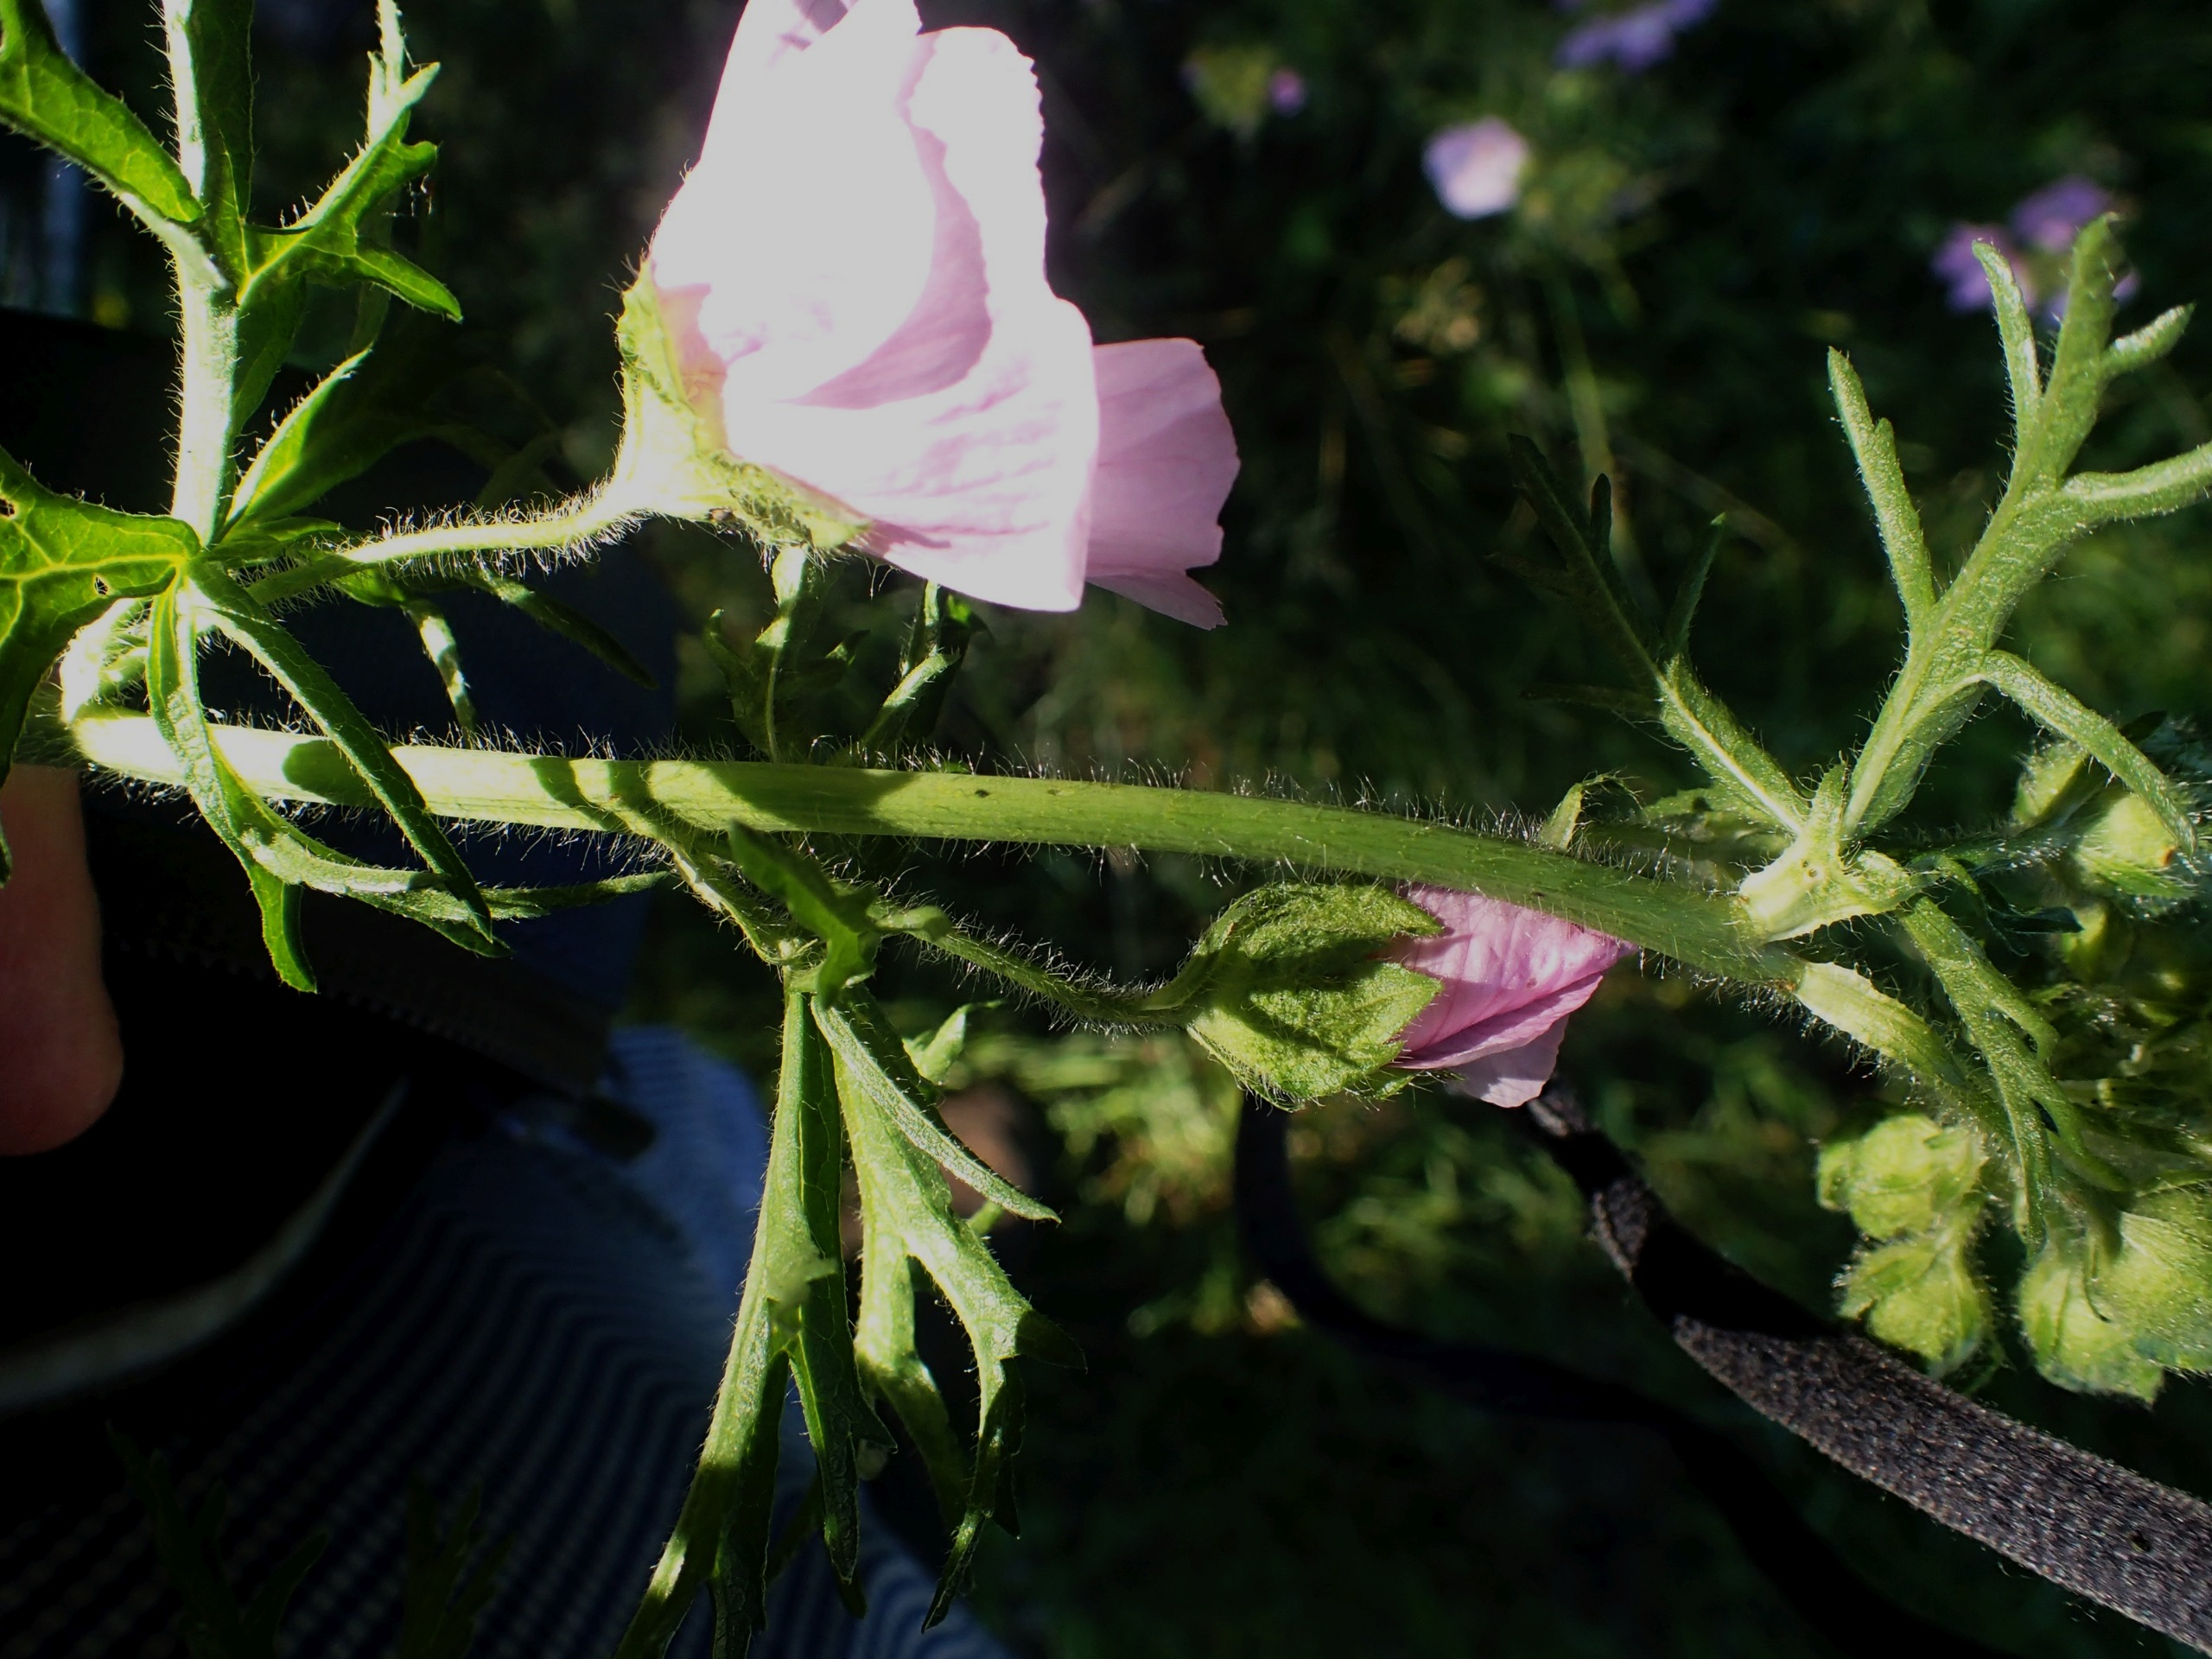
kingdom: Plantae
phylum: Tracheophyta
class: Magnoliopsida
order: Malvales
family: Malvaceae
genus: Malva
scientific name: Malva moschata
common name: Moskus-katost
